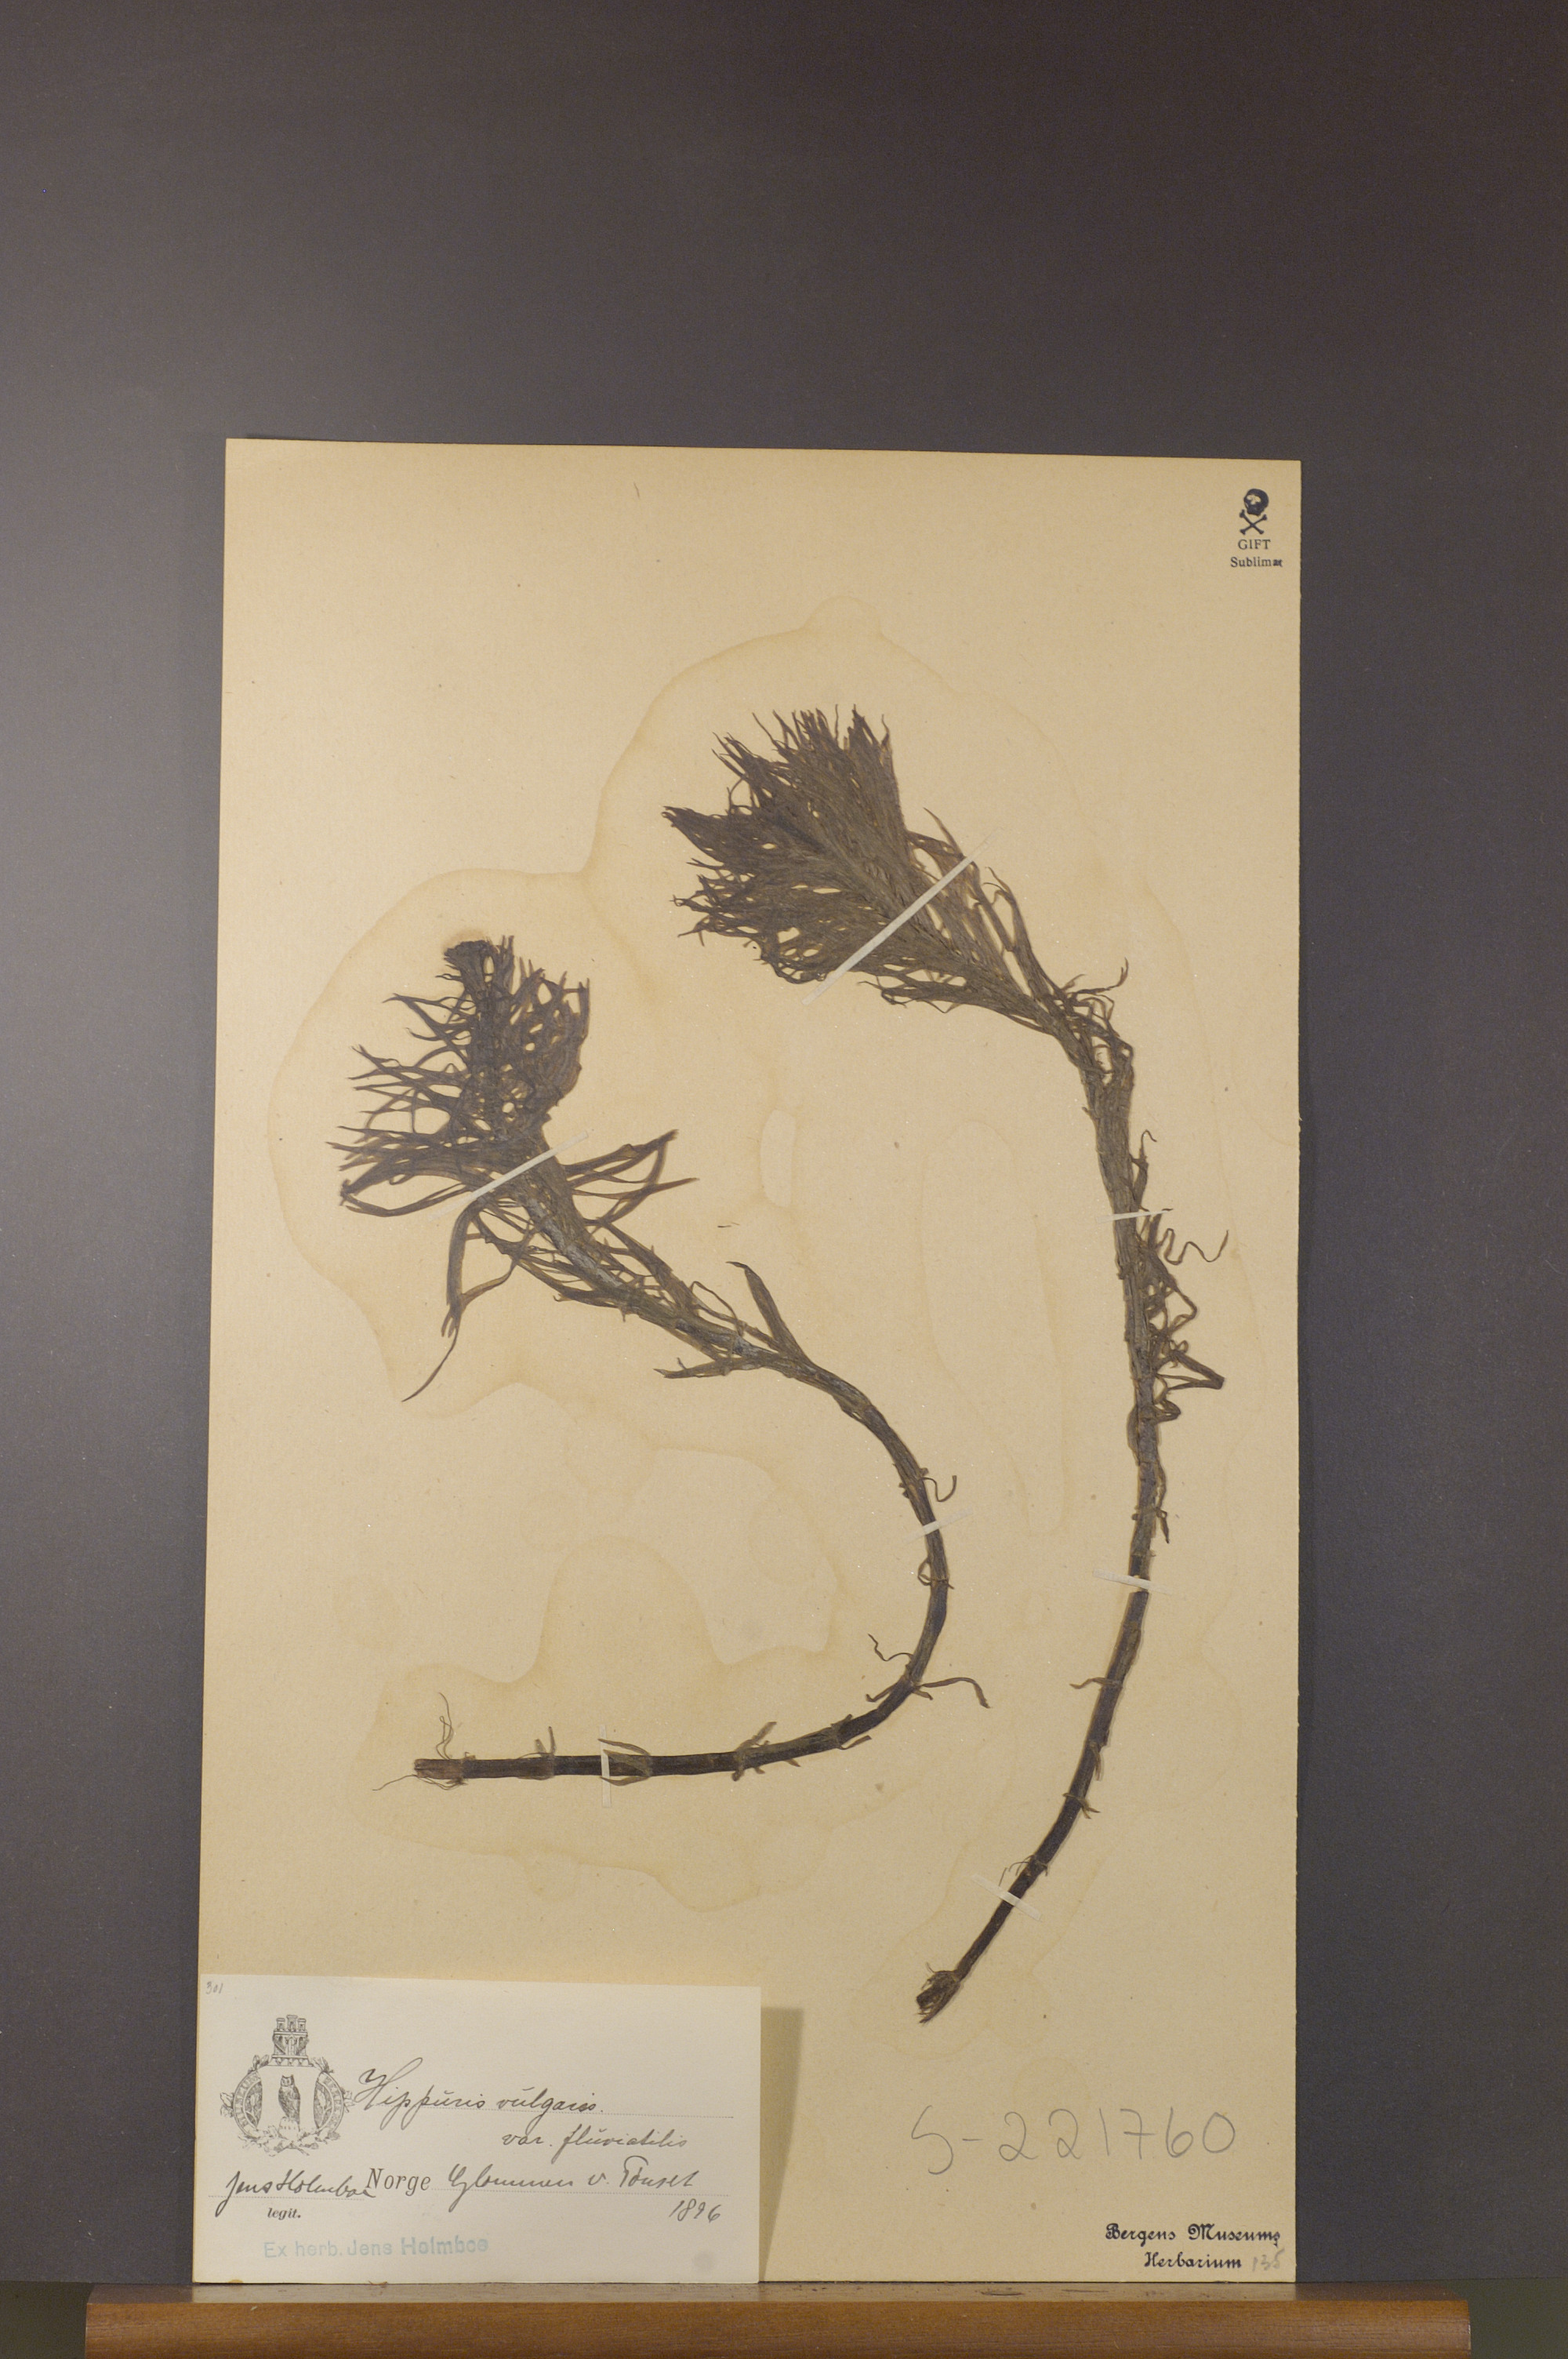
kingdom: Plantae
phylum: Tracheophyta
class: Magnoliopsida
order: Lamiales
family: Plantaginaceae
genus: Hippuris
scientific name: Hippuris vulgaris
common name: Mare's-tail
